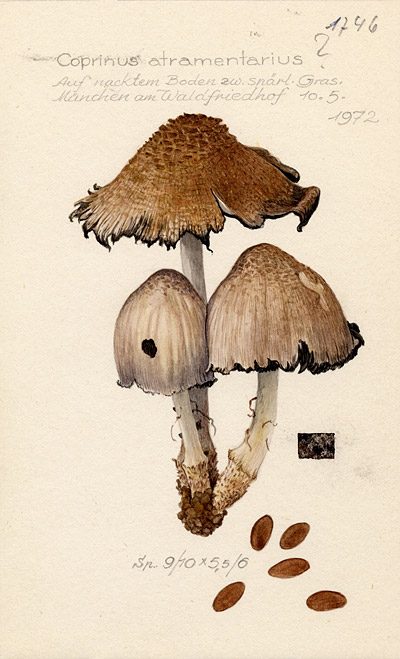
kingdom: Fungi
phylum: Basidiomycota
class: Agaricomycetes
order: Agaricales
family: Psathyrellaceae
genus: Coprinopsis
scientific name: Coprinopsis atramentaria
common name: Common ink-cap
